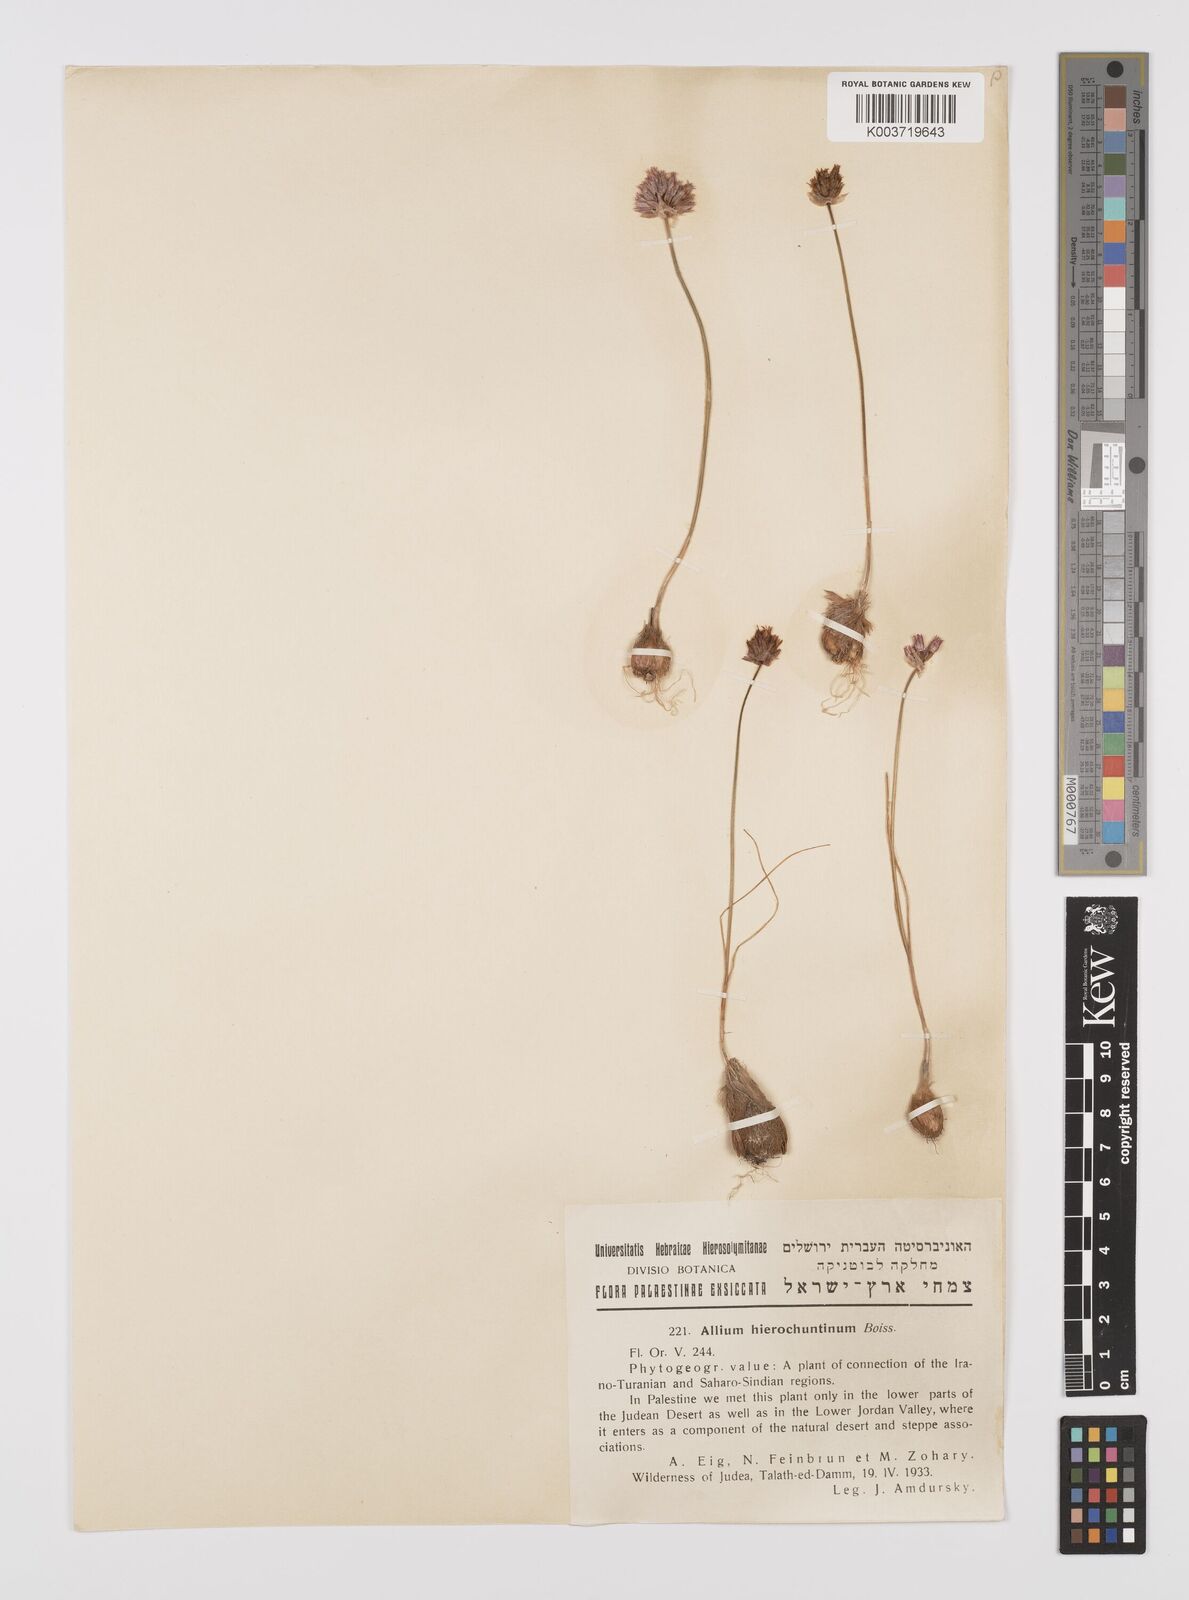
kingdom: Plantae
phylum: Tracheophyta
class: Liliopsida
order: Asparagales
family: Amaryllidaceae
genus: Allium
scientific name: Allium ascalonicum
